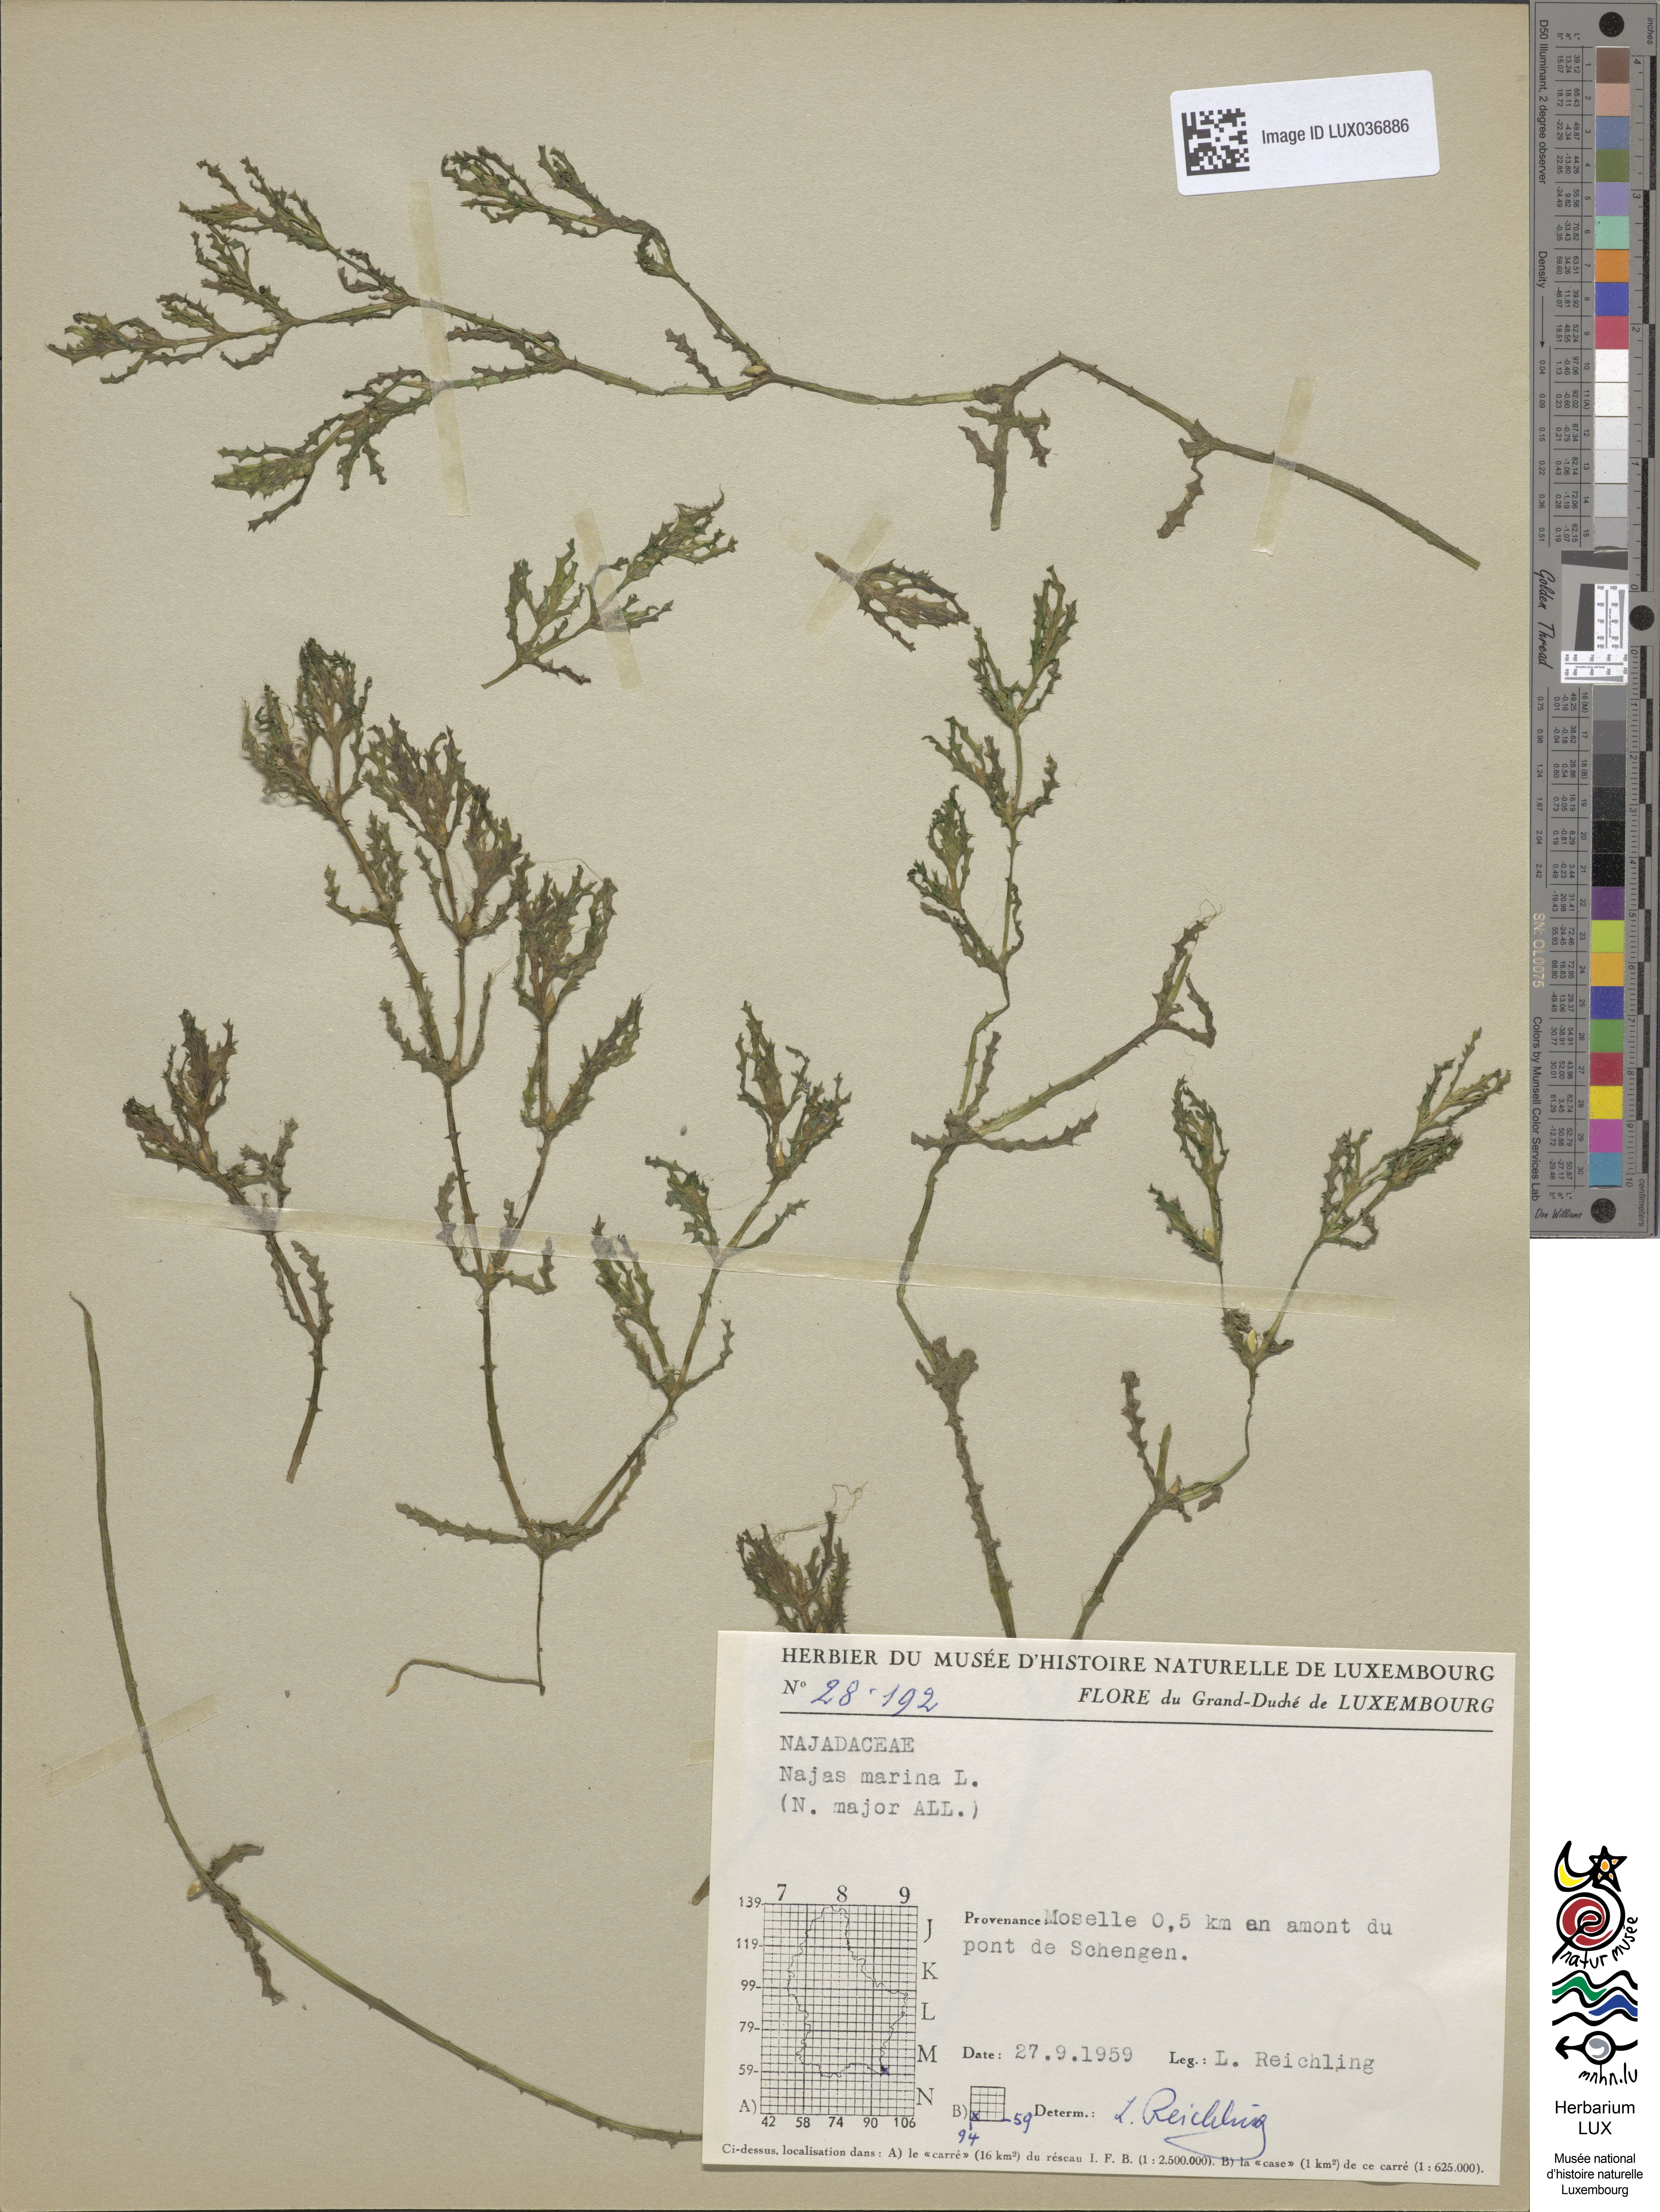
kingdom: Plantae
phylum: Tracheophyta
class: Liliopsida
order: Alismatales
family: Hydrocharitaceae
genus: Najas
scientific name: Najas marina
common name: Holly-leaved naiad
